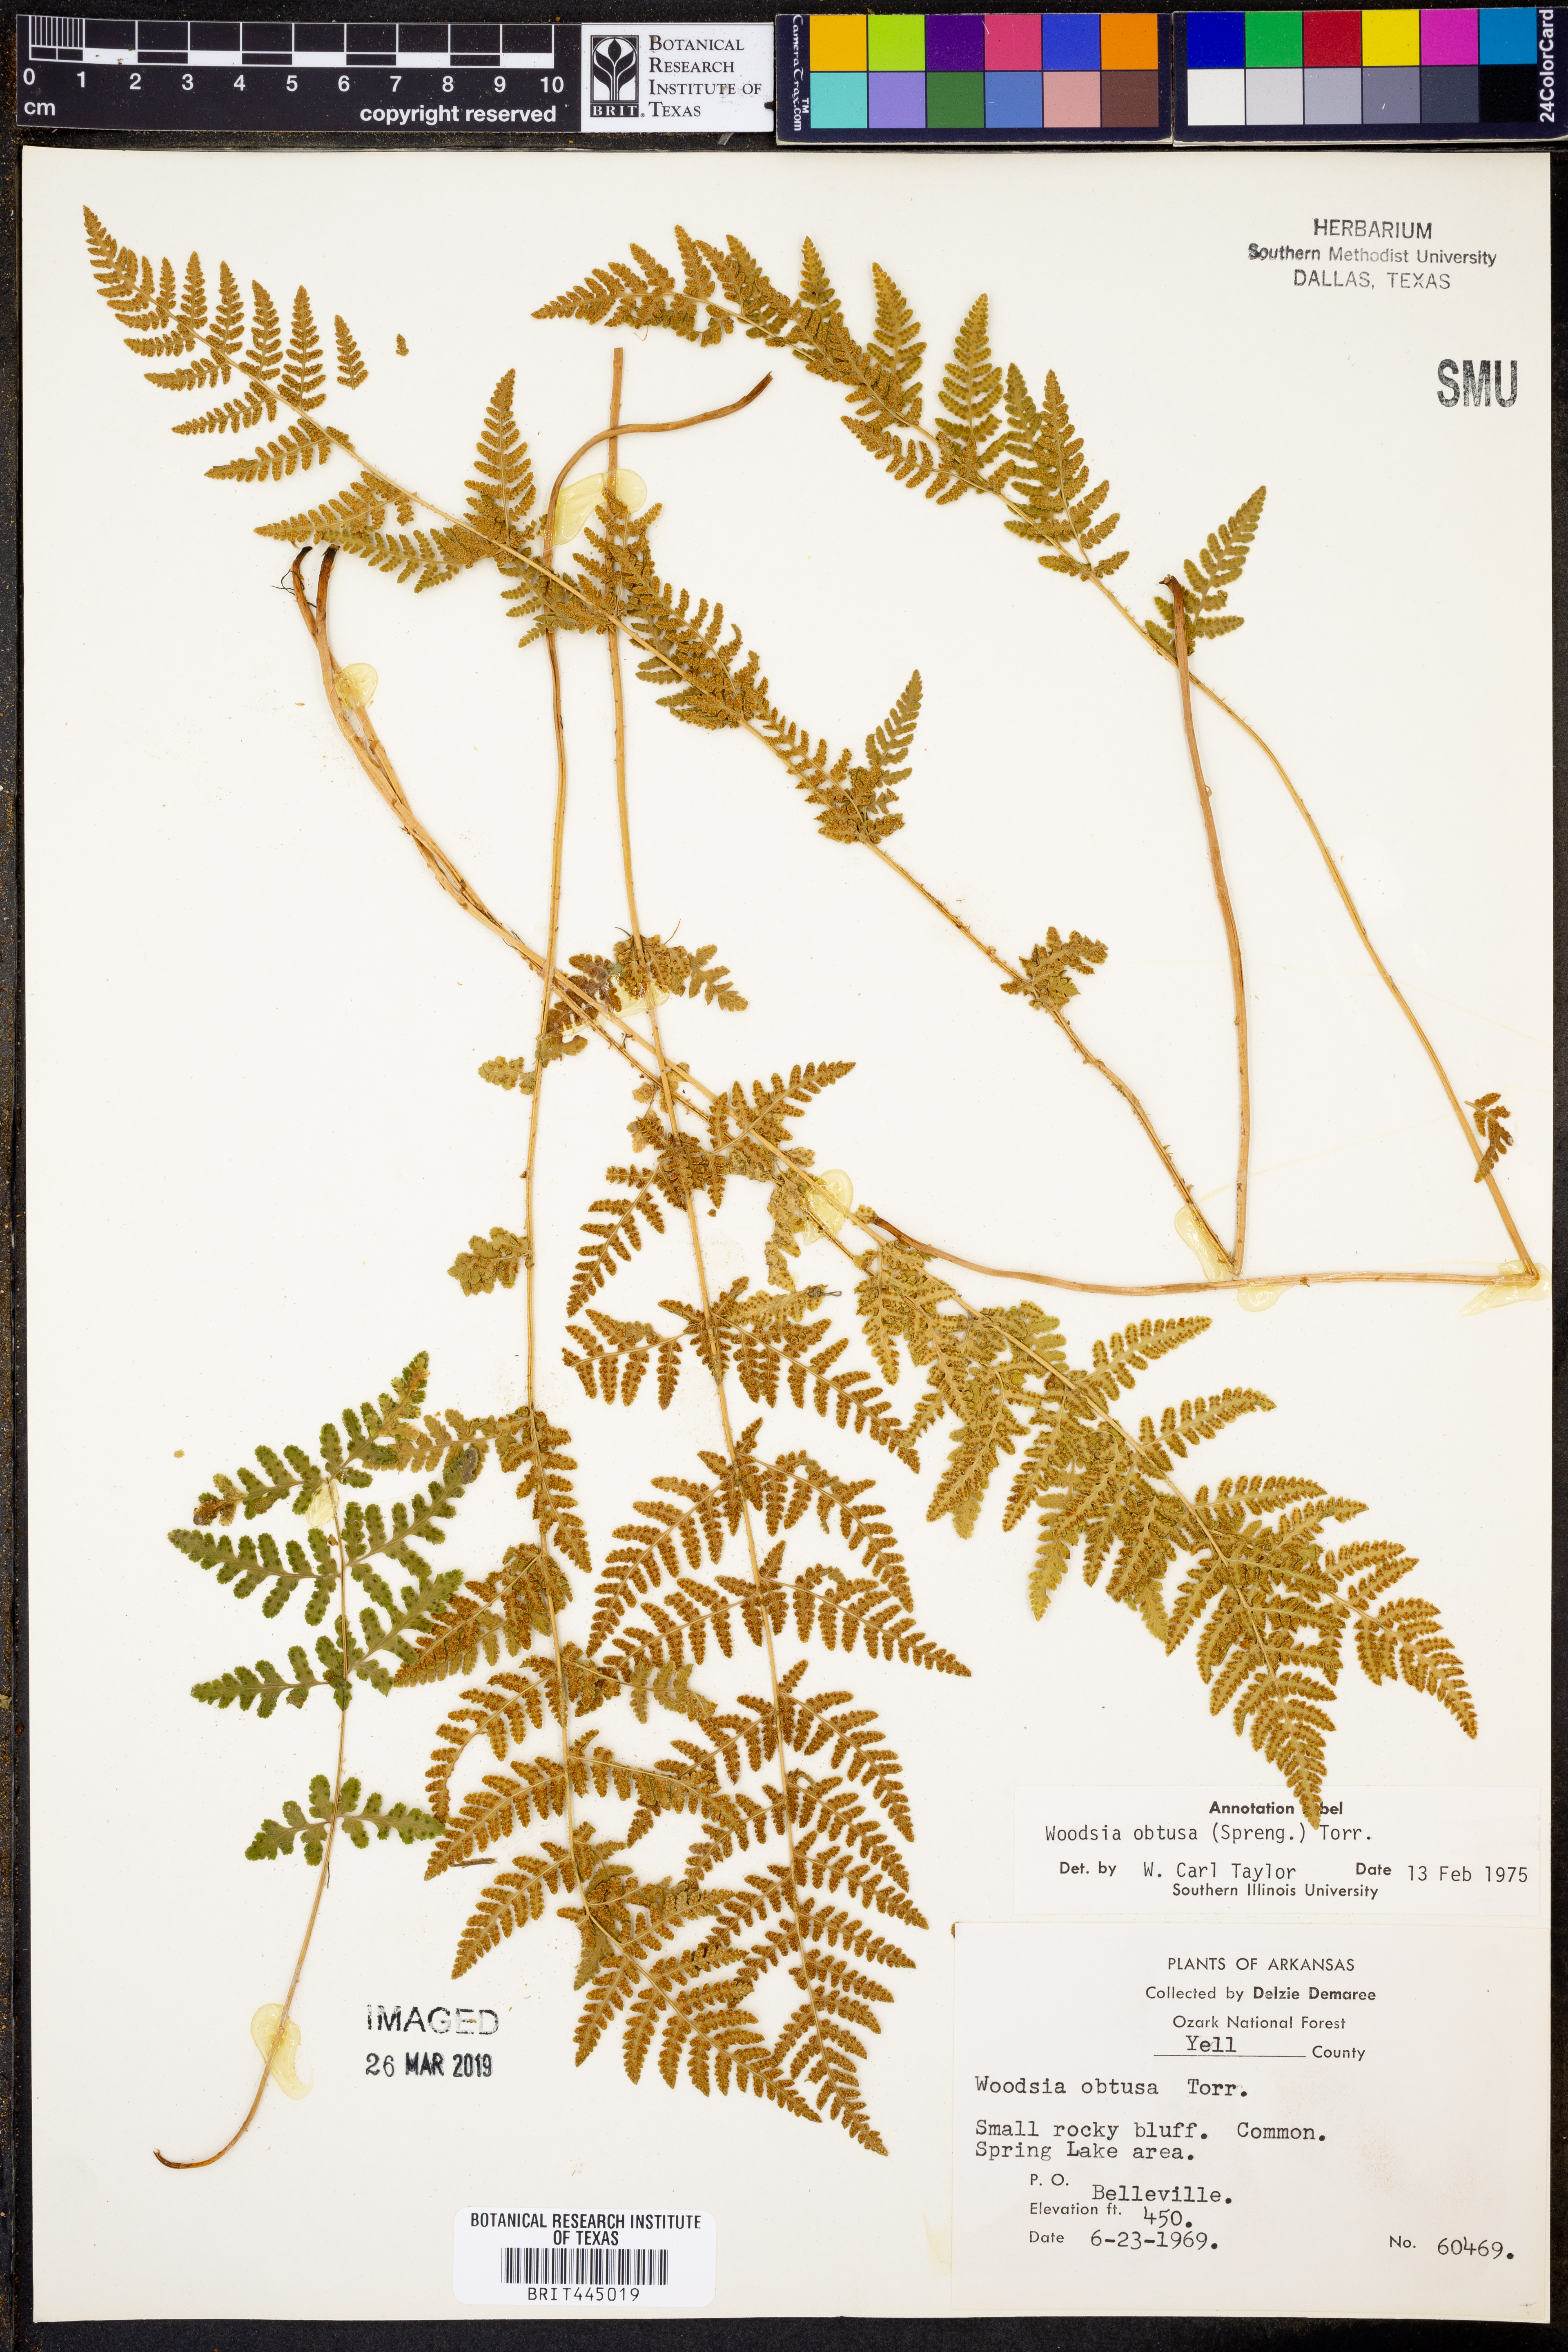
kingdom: Plantae
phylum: Tracheophyta
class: Polypodiopsida
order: Polypodiales
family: Woodsiaceae
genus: Physematium
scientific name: Physematium obtusum
